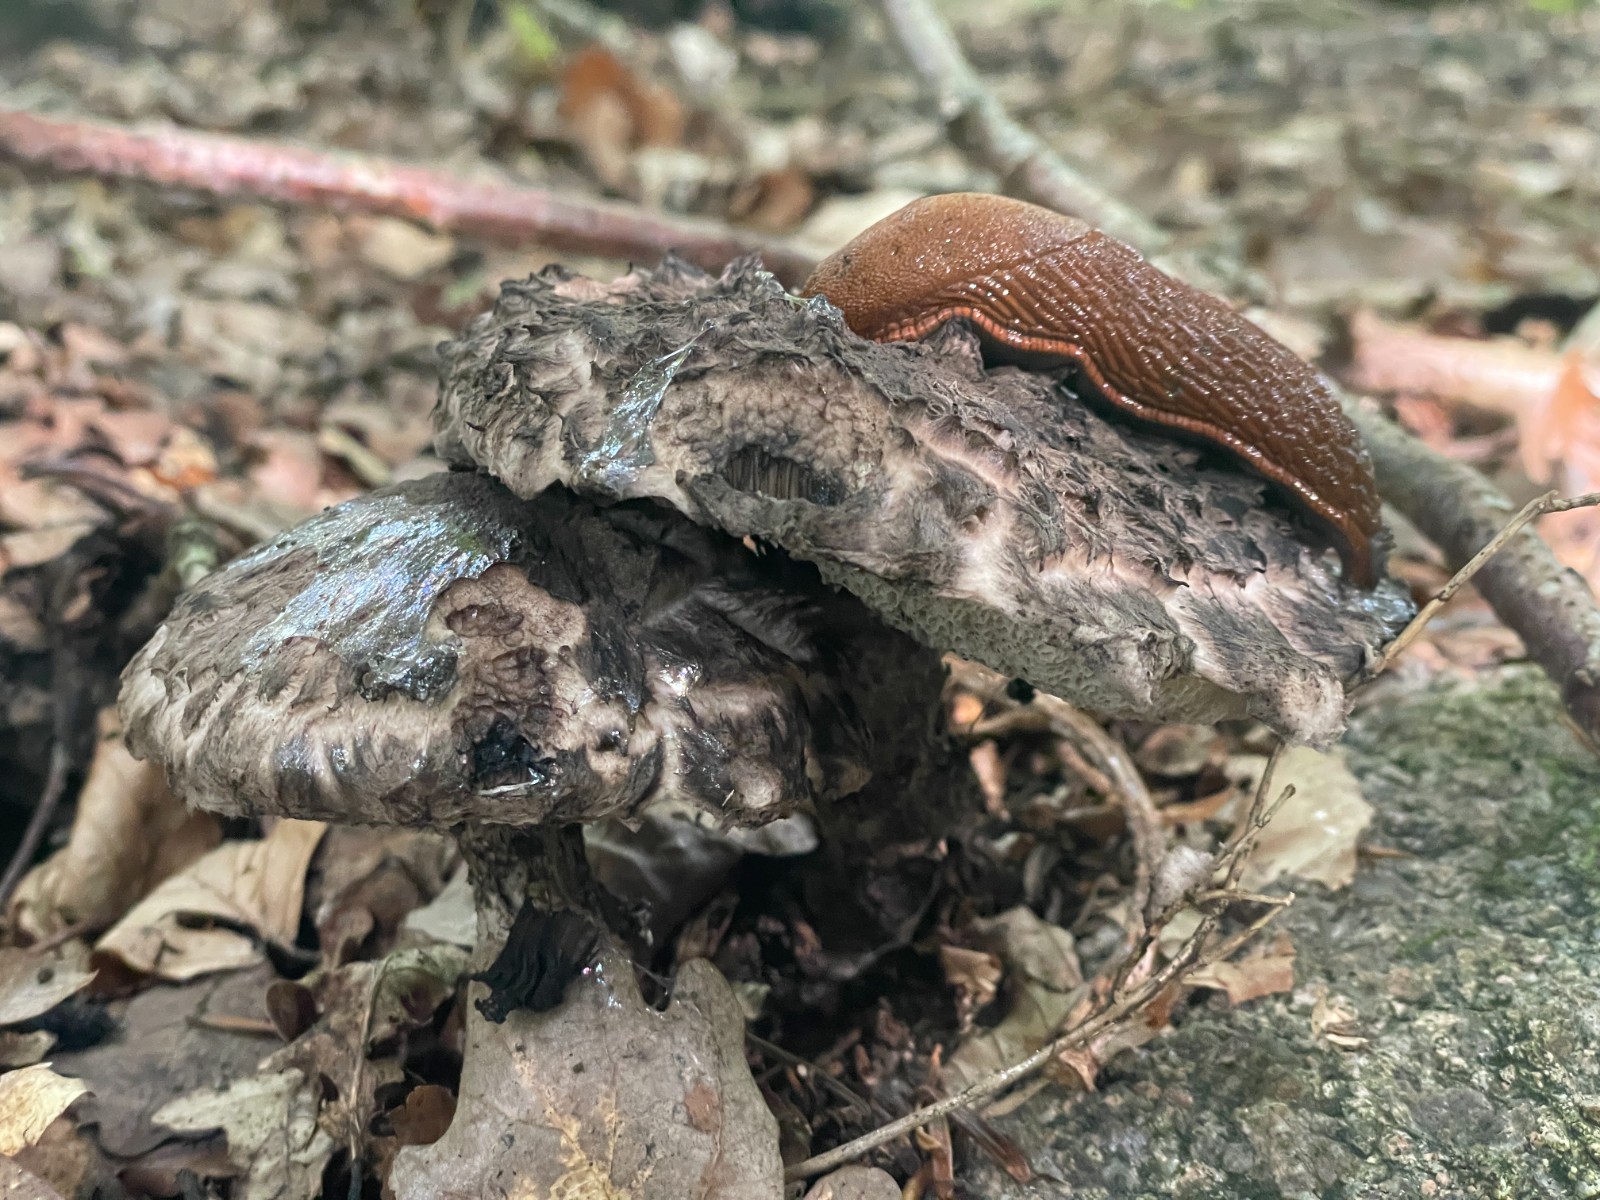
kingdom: Fungi
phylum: Basidiomycota
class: Agaricomycetes
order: Boletales
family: Boletaceae
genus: Strobilomyces
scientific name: Strobilomyces strobilaceus
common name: koglerørhat
